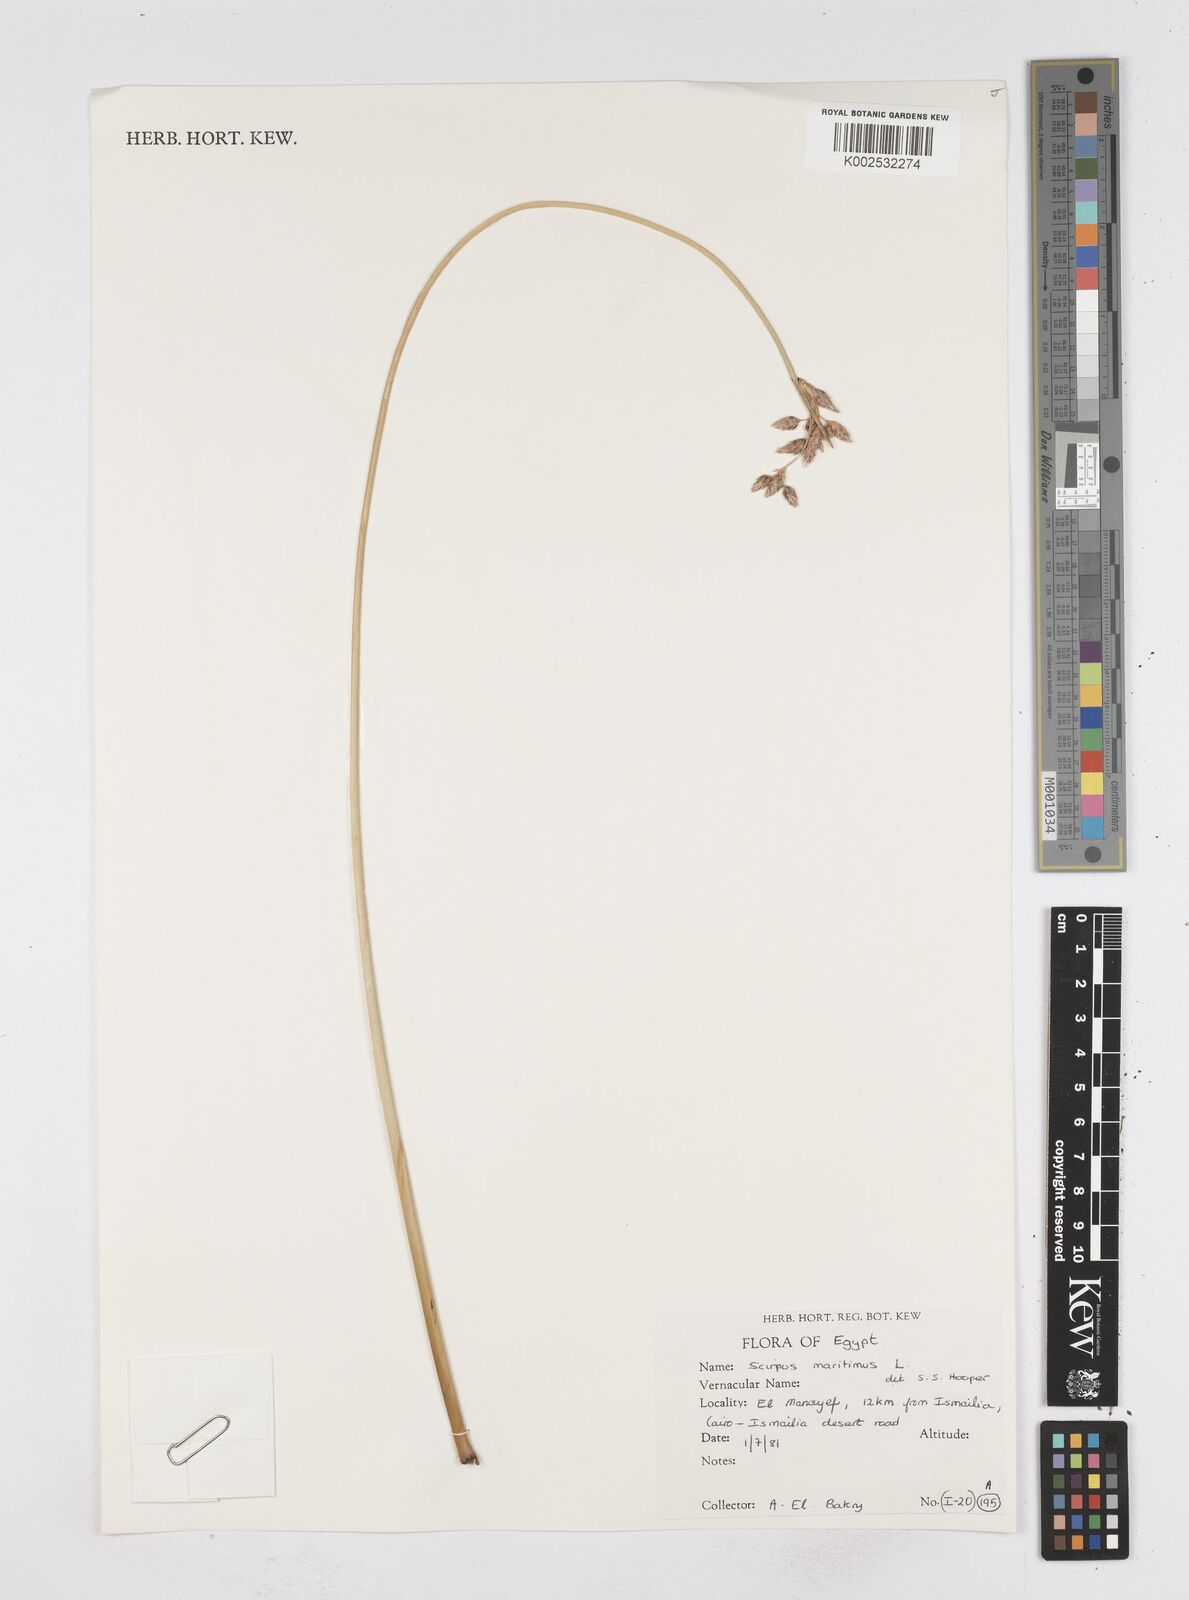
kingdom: Plantae
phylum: Tracheophyta
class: Liliopsida
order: Poales
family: Cyperaceae
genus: Bolboschoenus
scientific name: Bolboschoenus maritimus
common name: Sea club-rush
